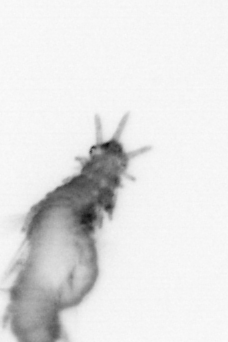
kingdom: Animalia
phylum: Annelida
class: Polychaeta
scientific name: Polychaeta
